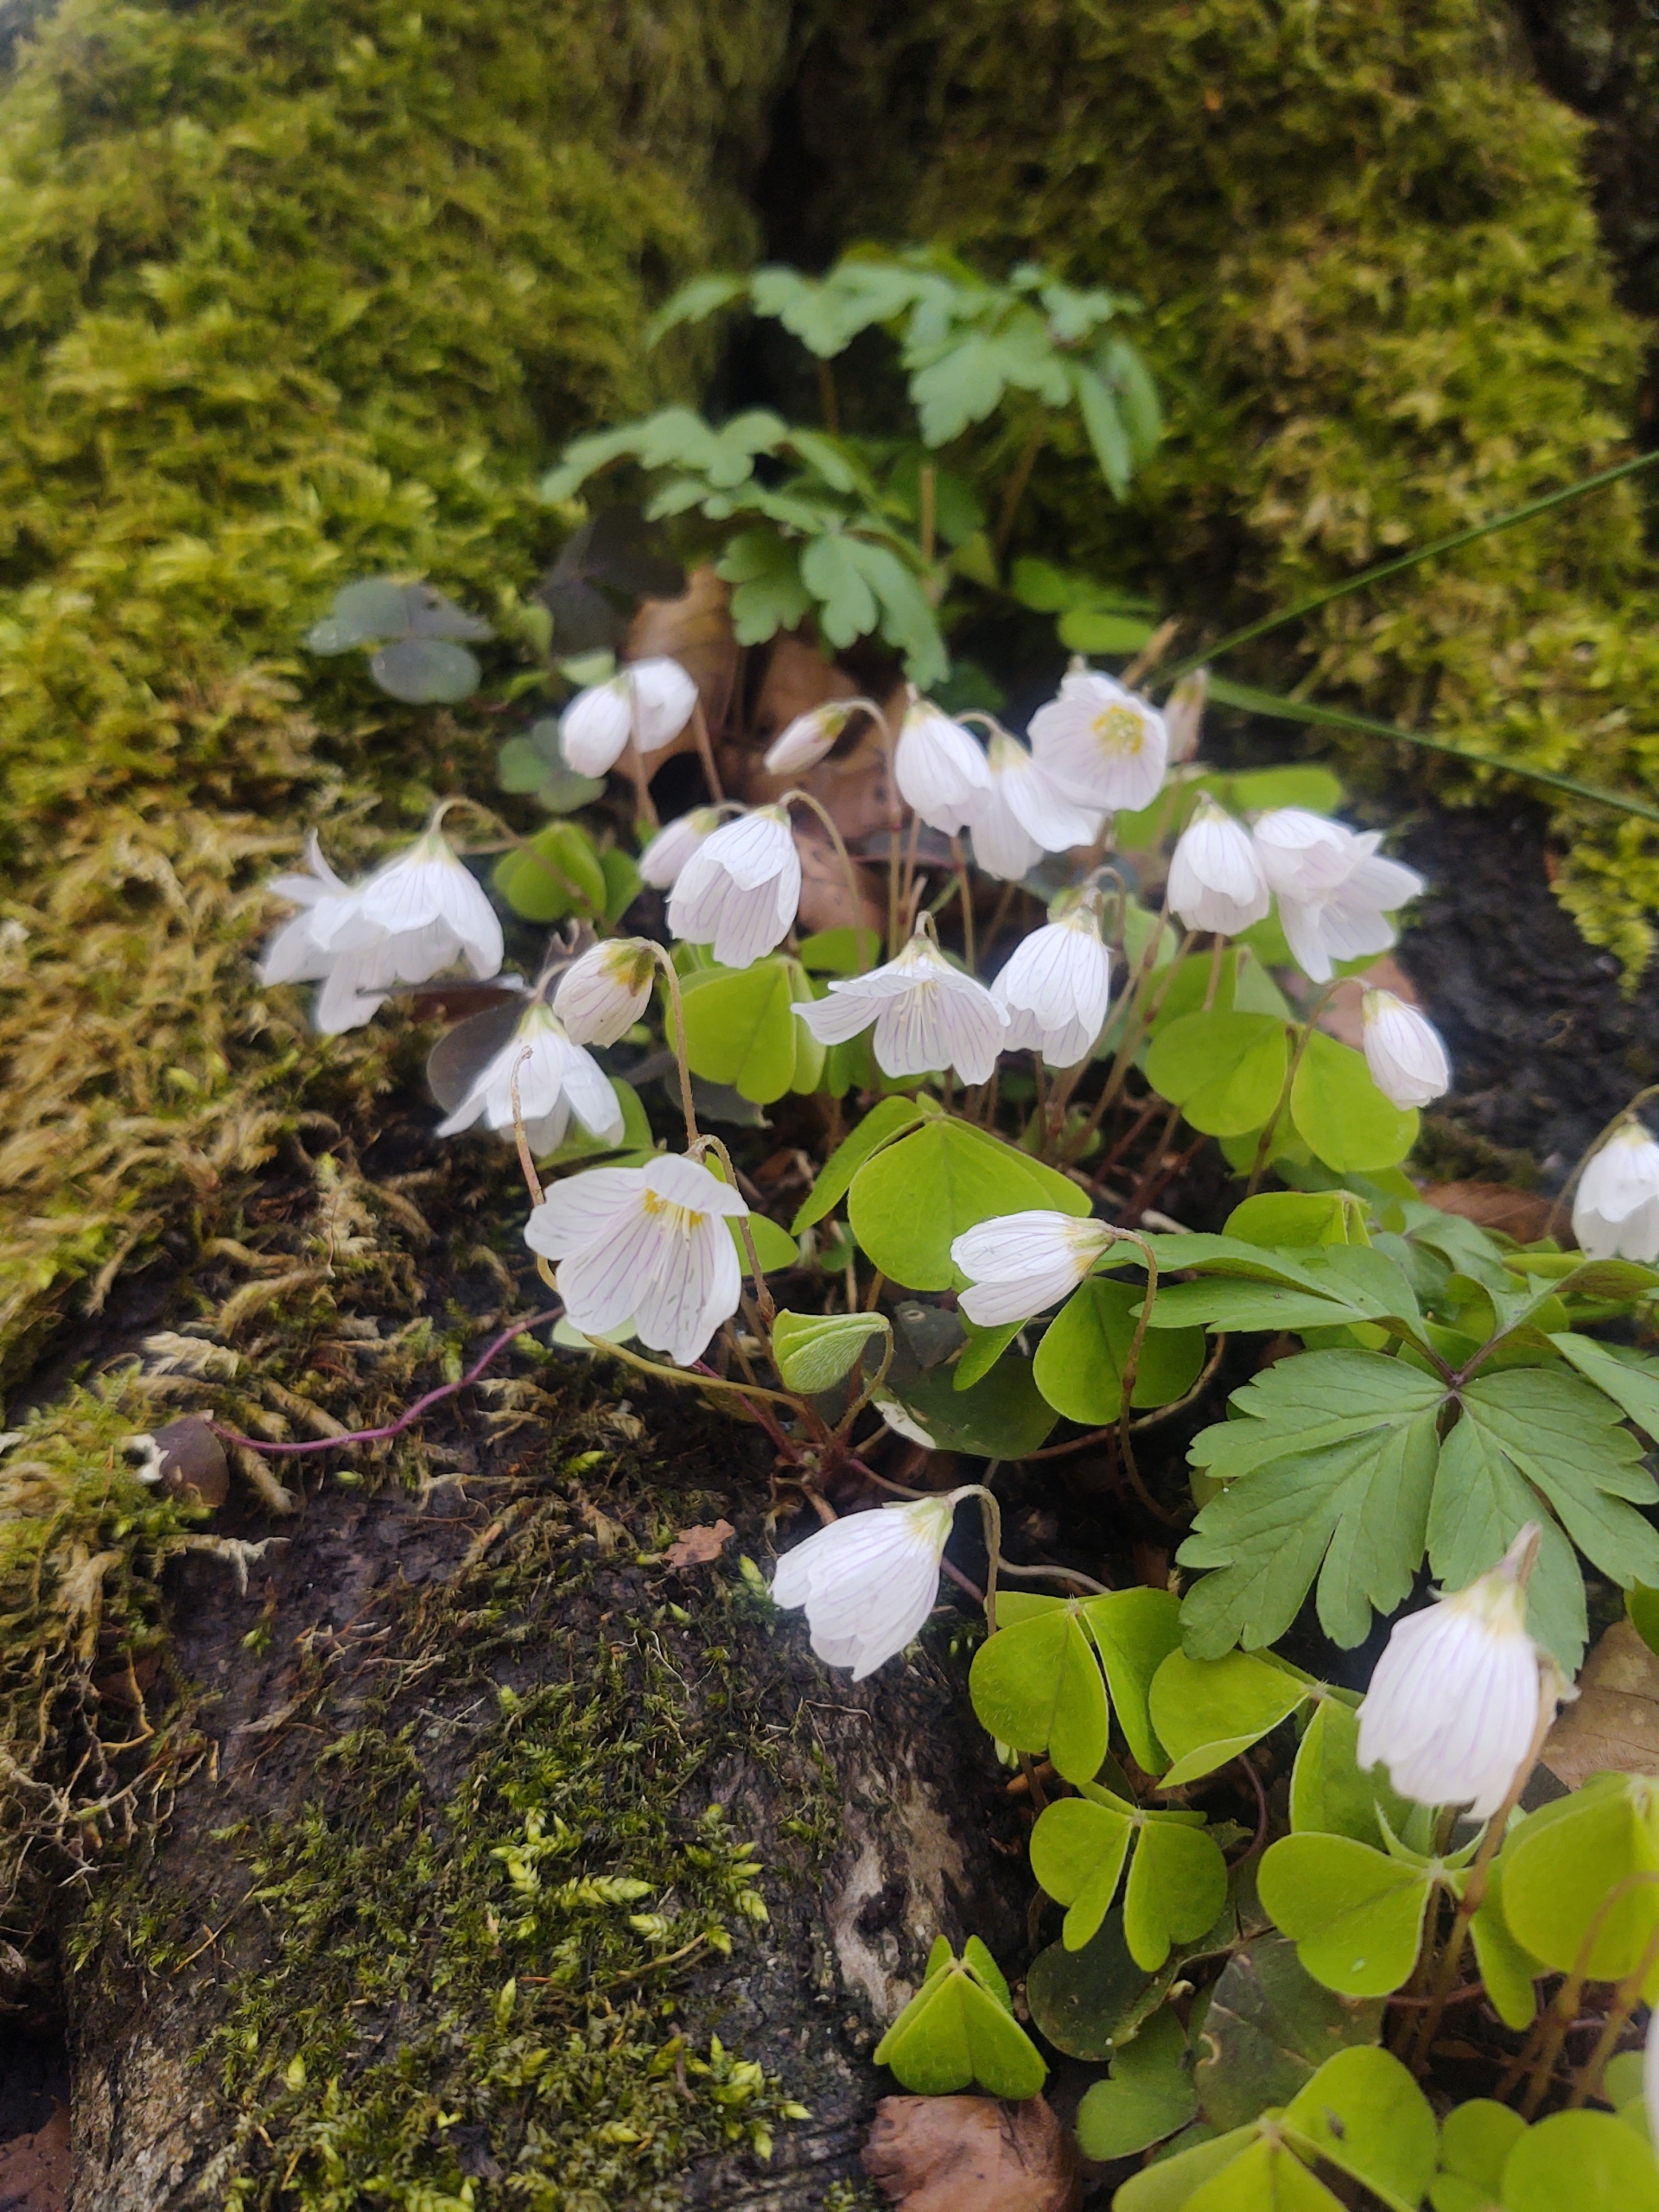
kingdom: Plantae
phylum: Tracheophyta
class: Magnoliopsida
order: Oxalidales
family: Oxalidaceae
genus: Oxalis
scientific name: Oxalis acetosella
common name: Skovsyre
